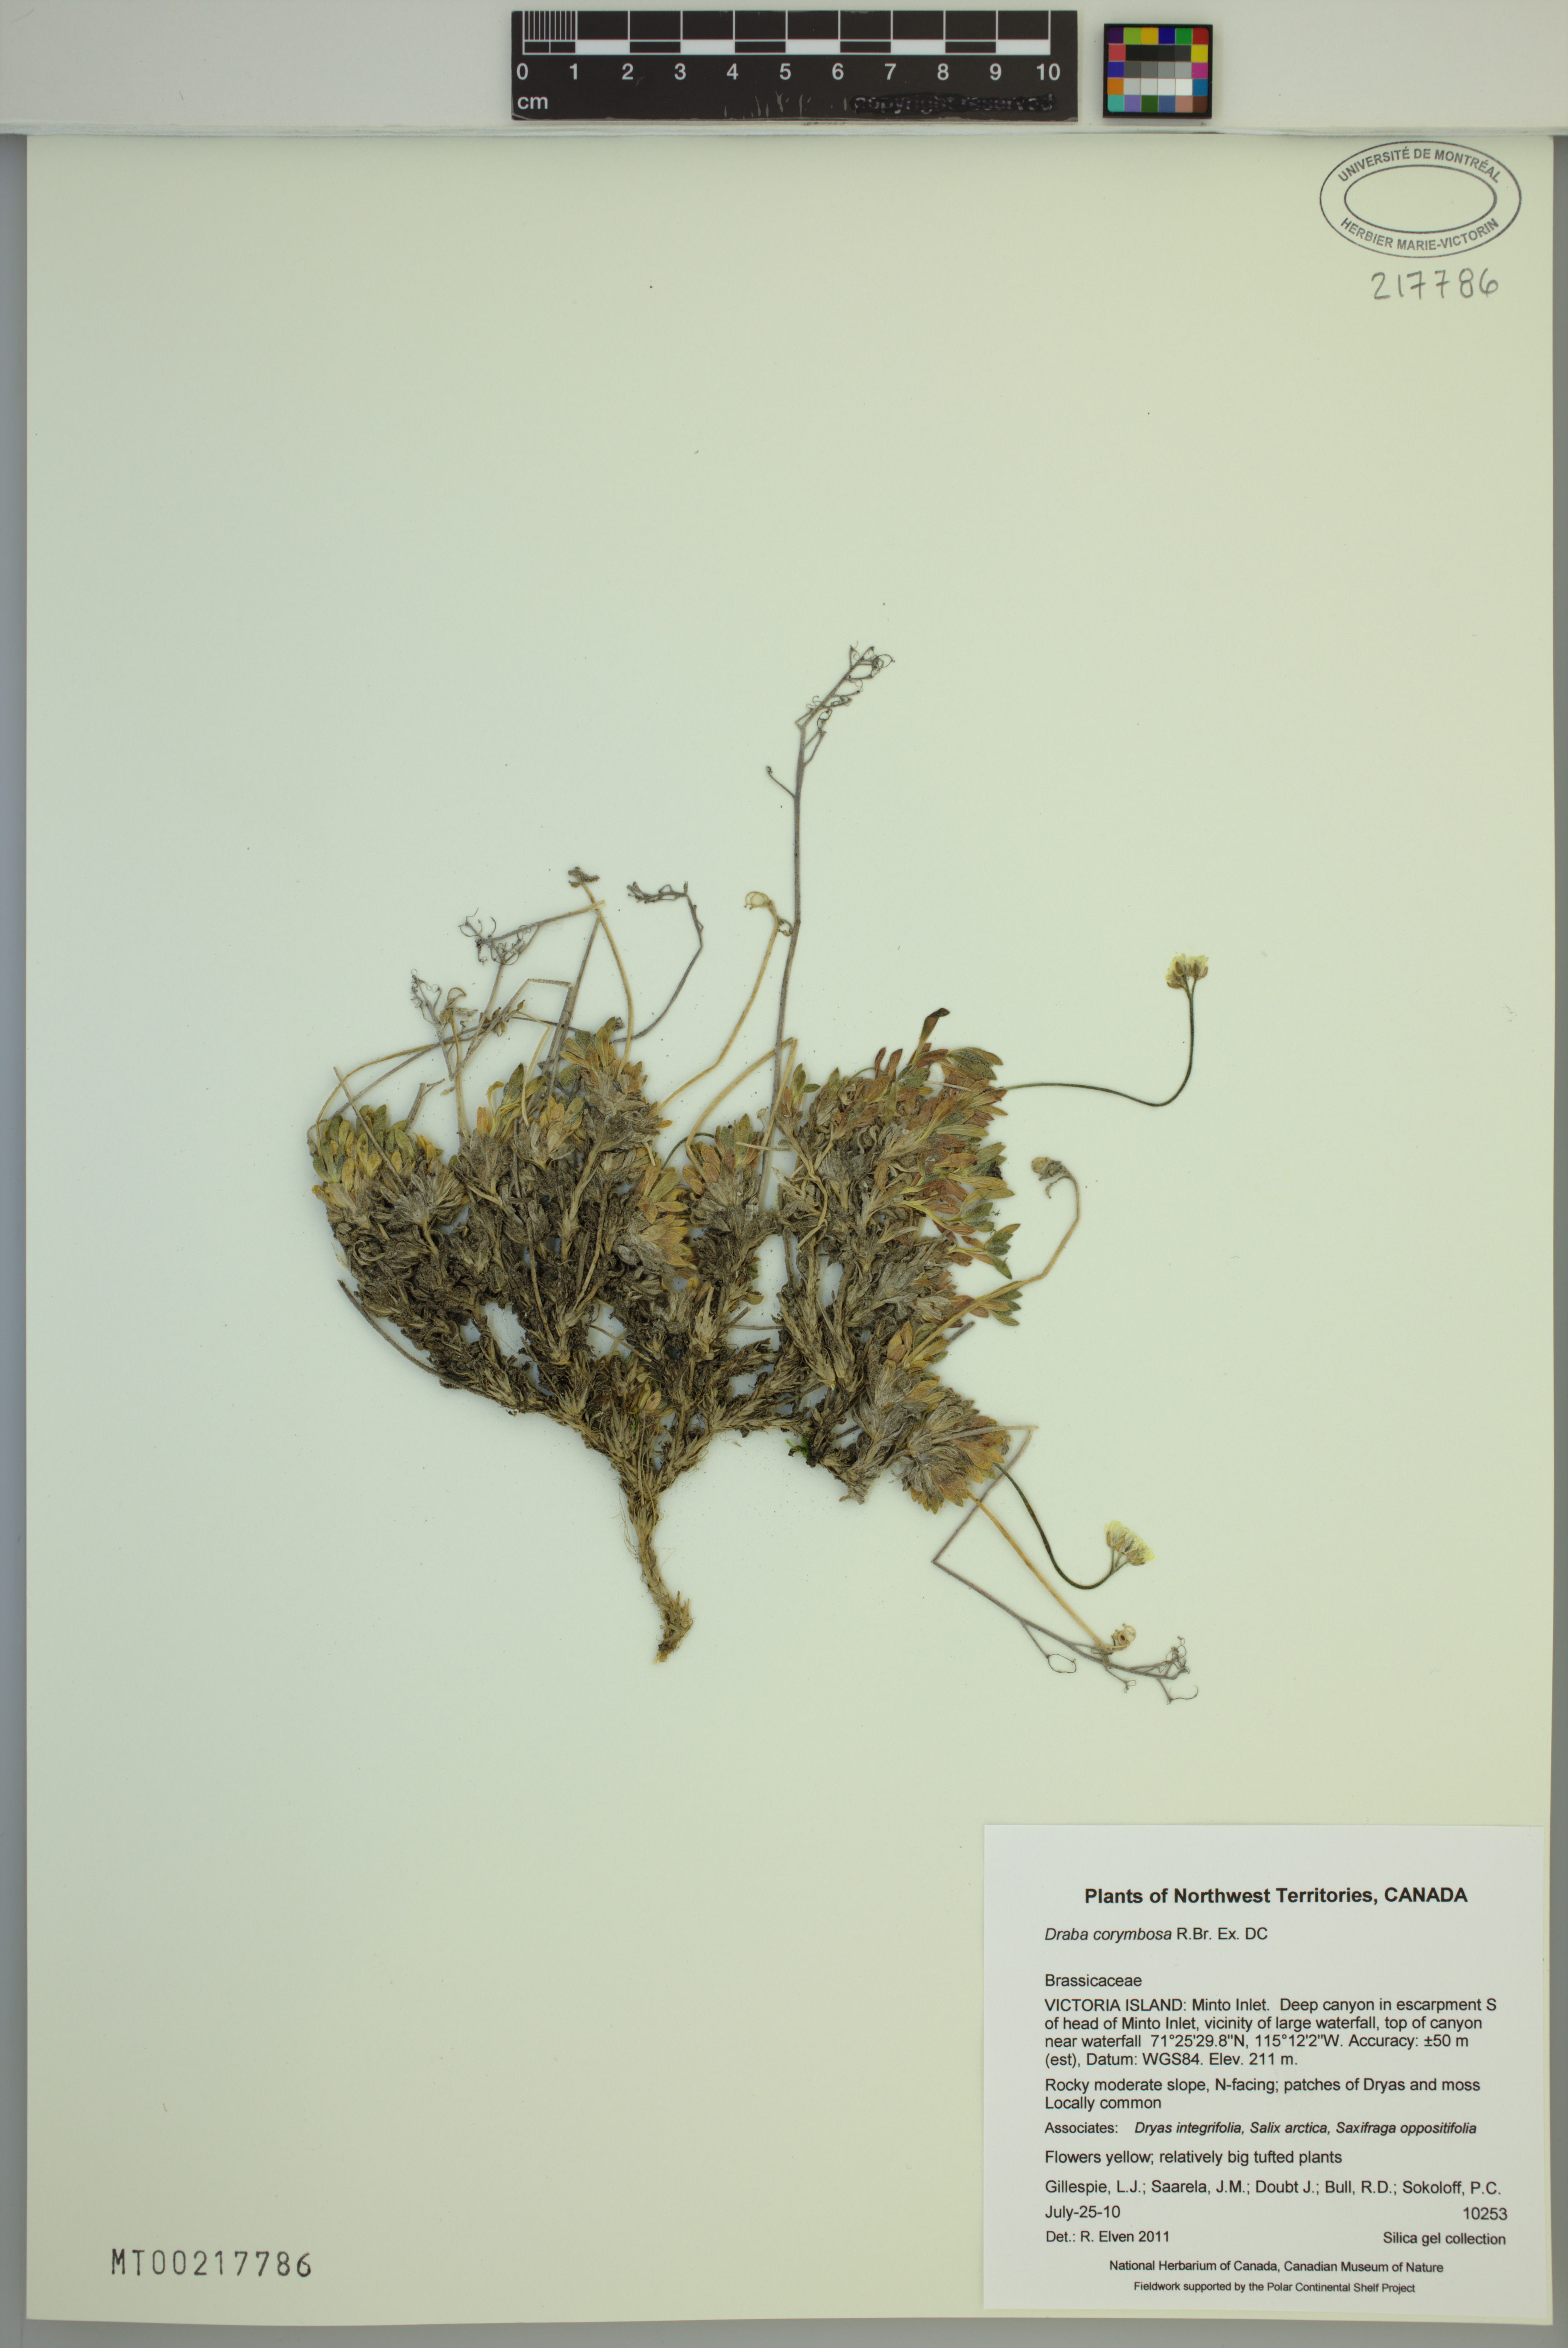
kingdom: Plantae
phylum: Tracheophyta
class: Magnoliopsida
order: Brassicales
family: Brassicaceae
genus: Draba
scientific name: Draba corymbosa
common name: Cushion whitlow-grass
